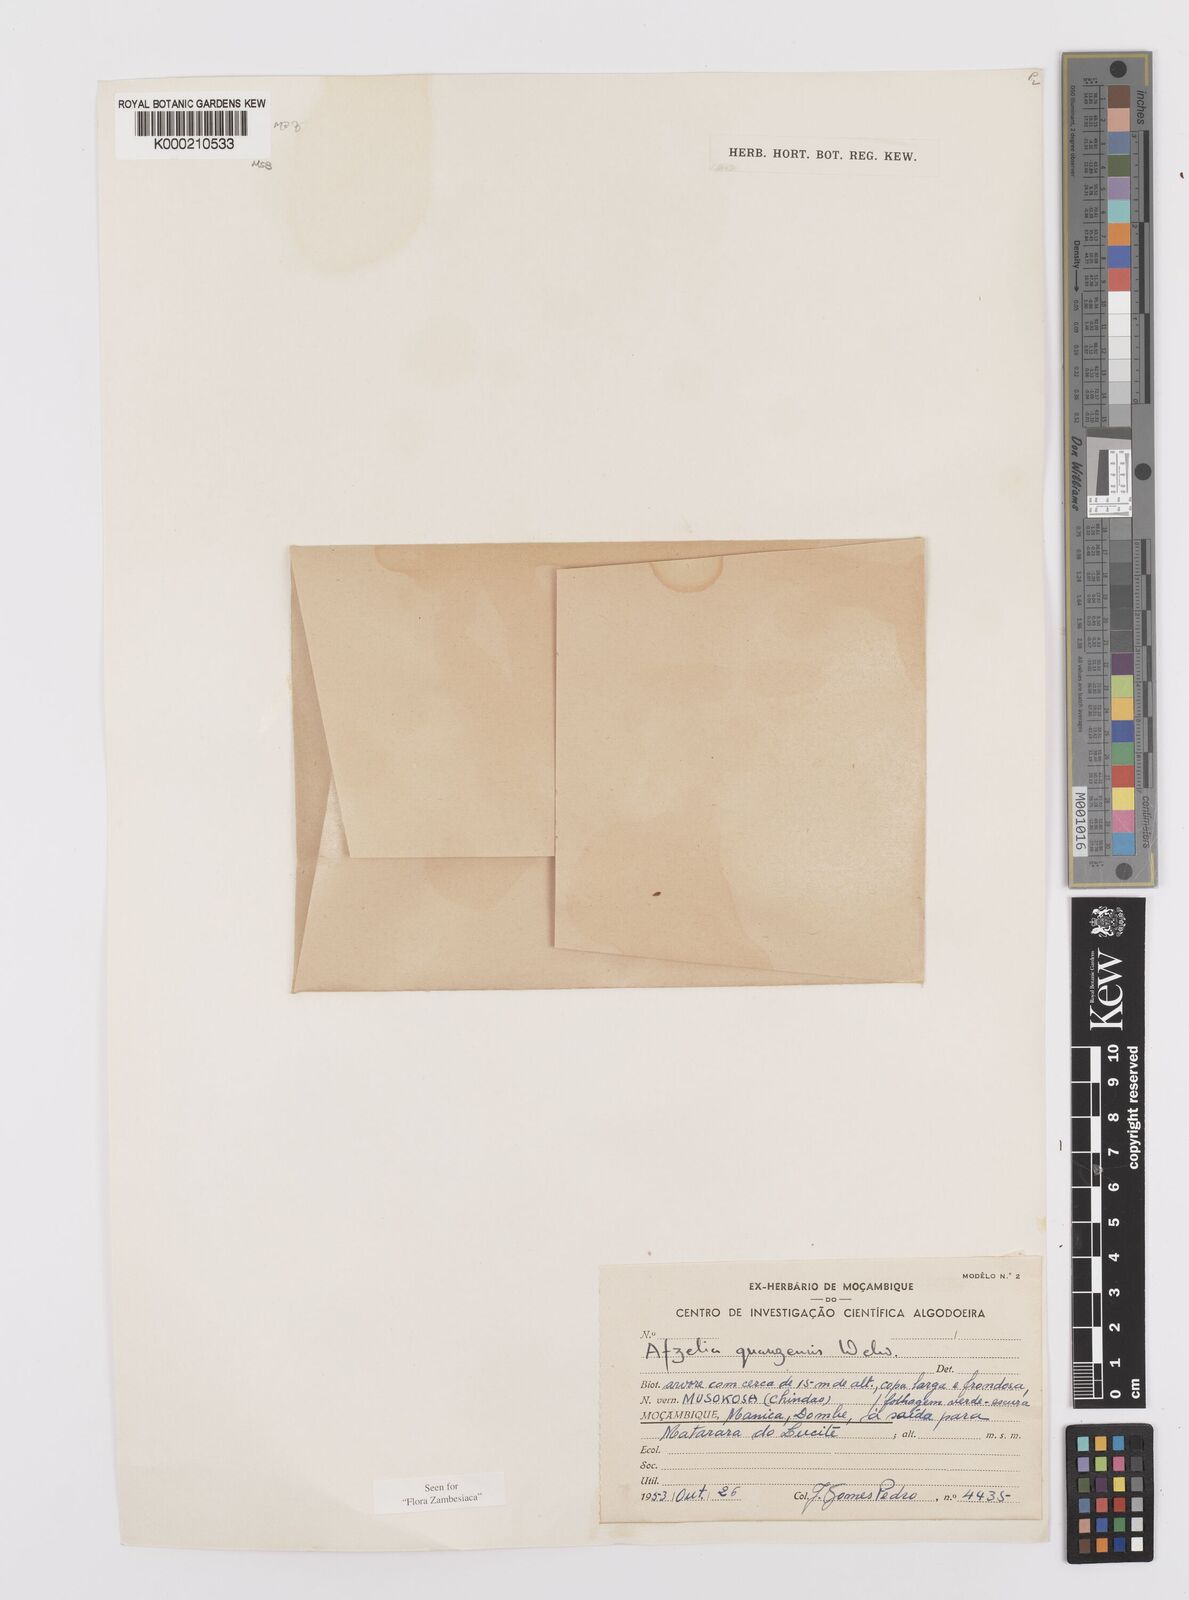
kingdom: Plantae
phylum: Tracheophyta
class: Magnoliopsida
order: Fabales
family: Fabaceae
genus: Afzelia
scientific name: Afzelia quanzensis
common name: Pod mahogany
